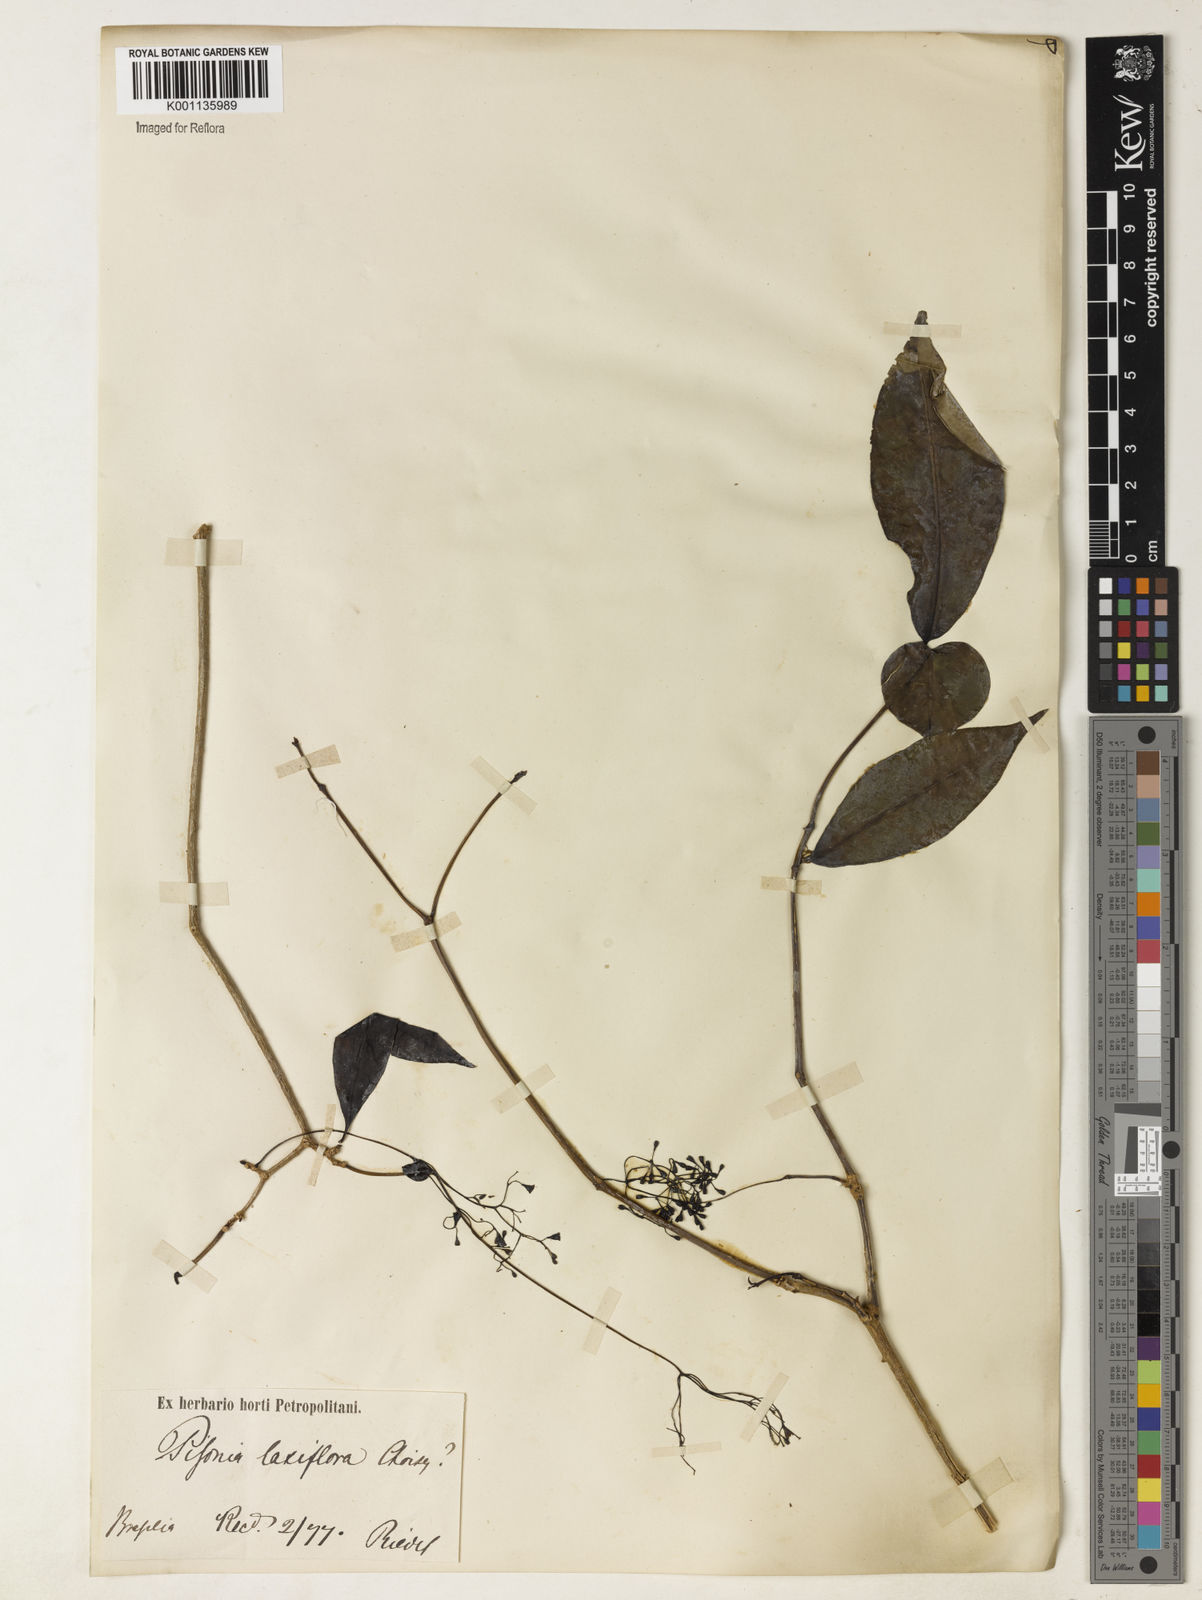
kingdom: Plantae
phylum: Tracheophyta
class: Magnoliopsida
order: Caryophyllales
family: Nyctaginaceae
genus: Guapira
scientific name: Guapira opposita
